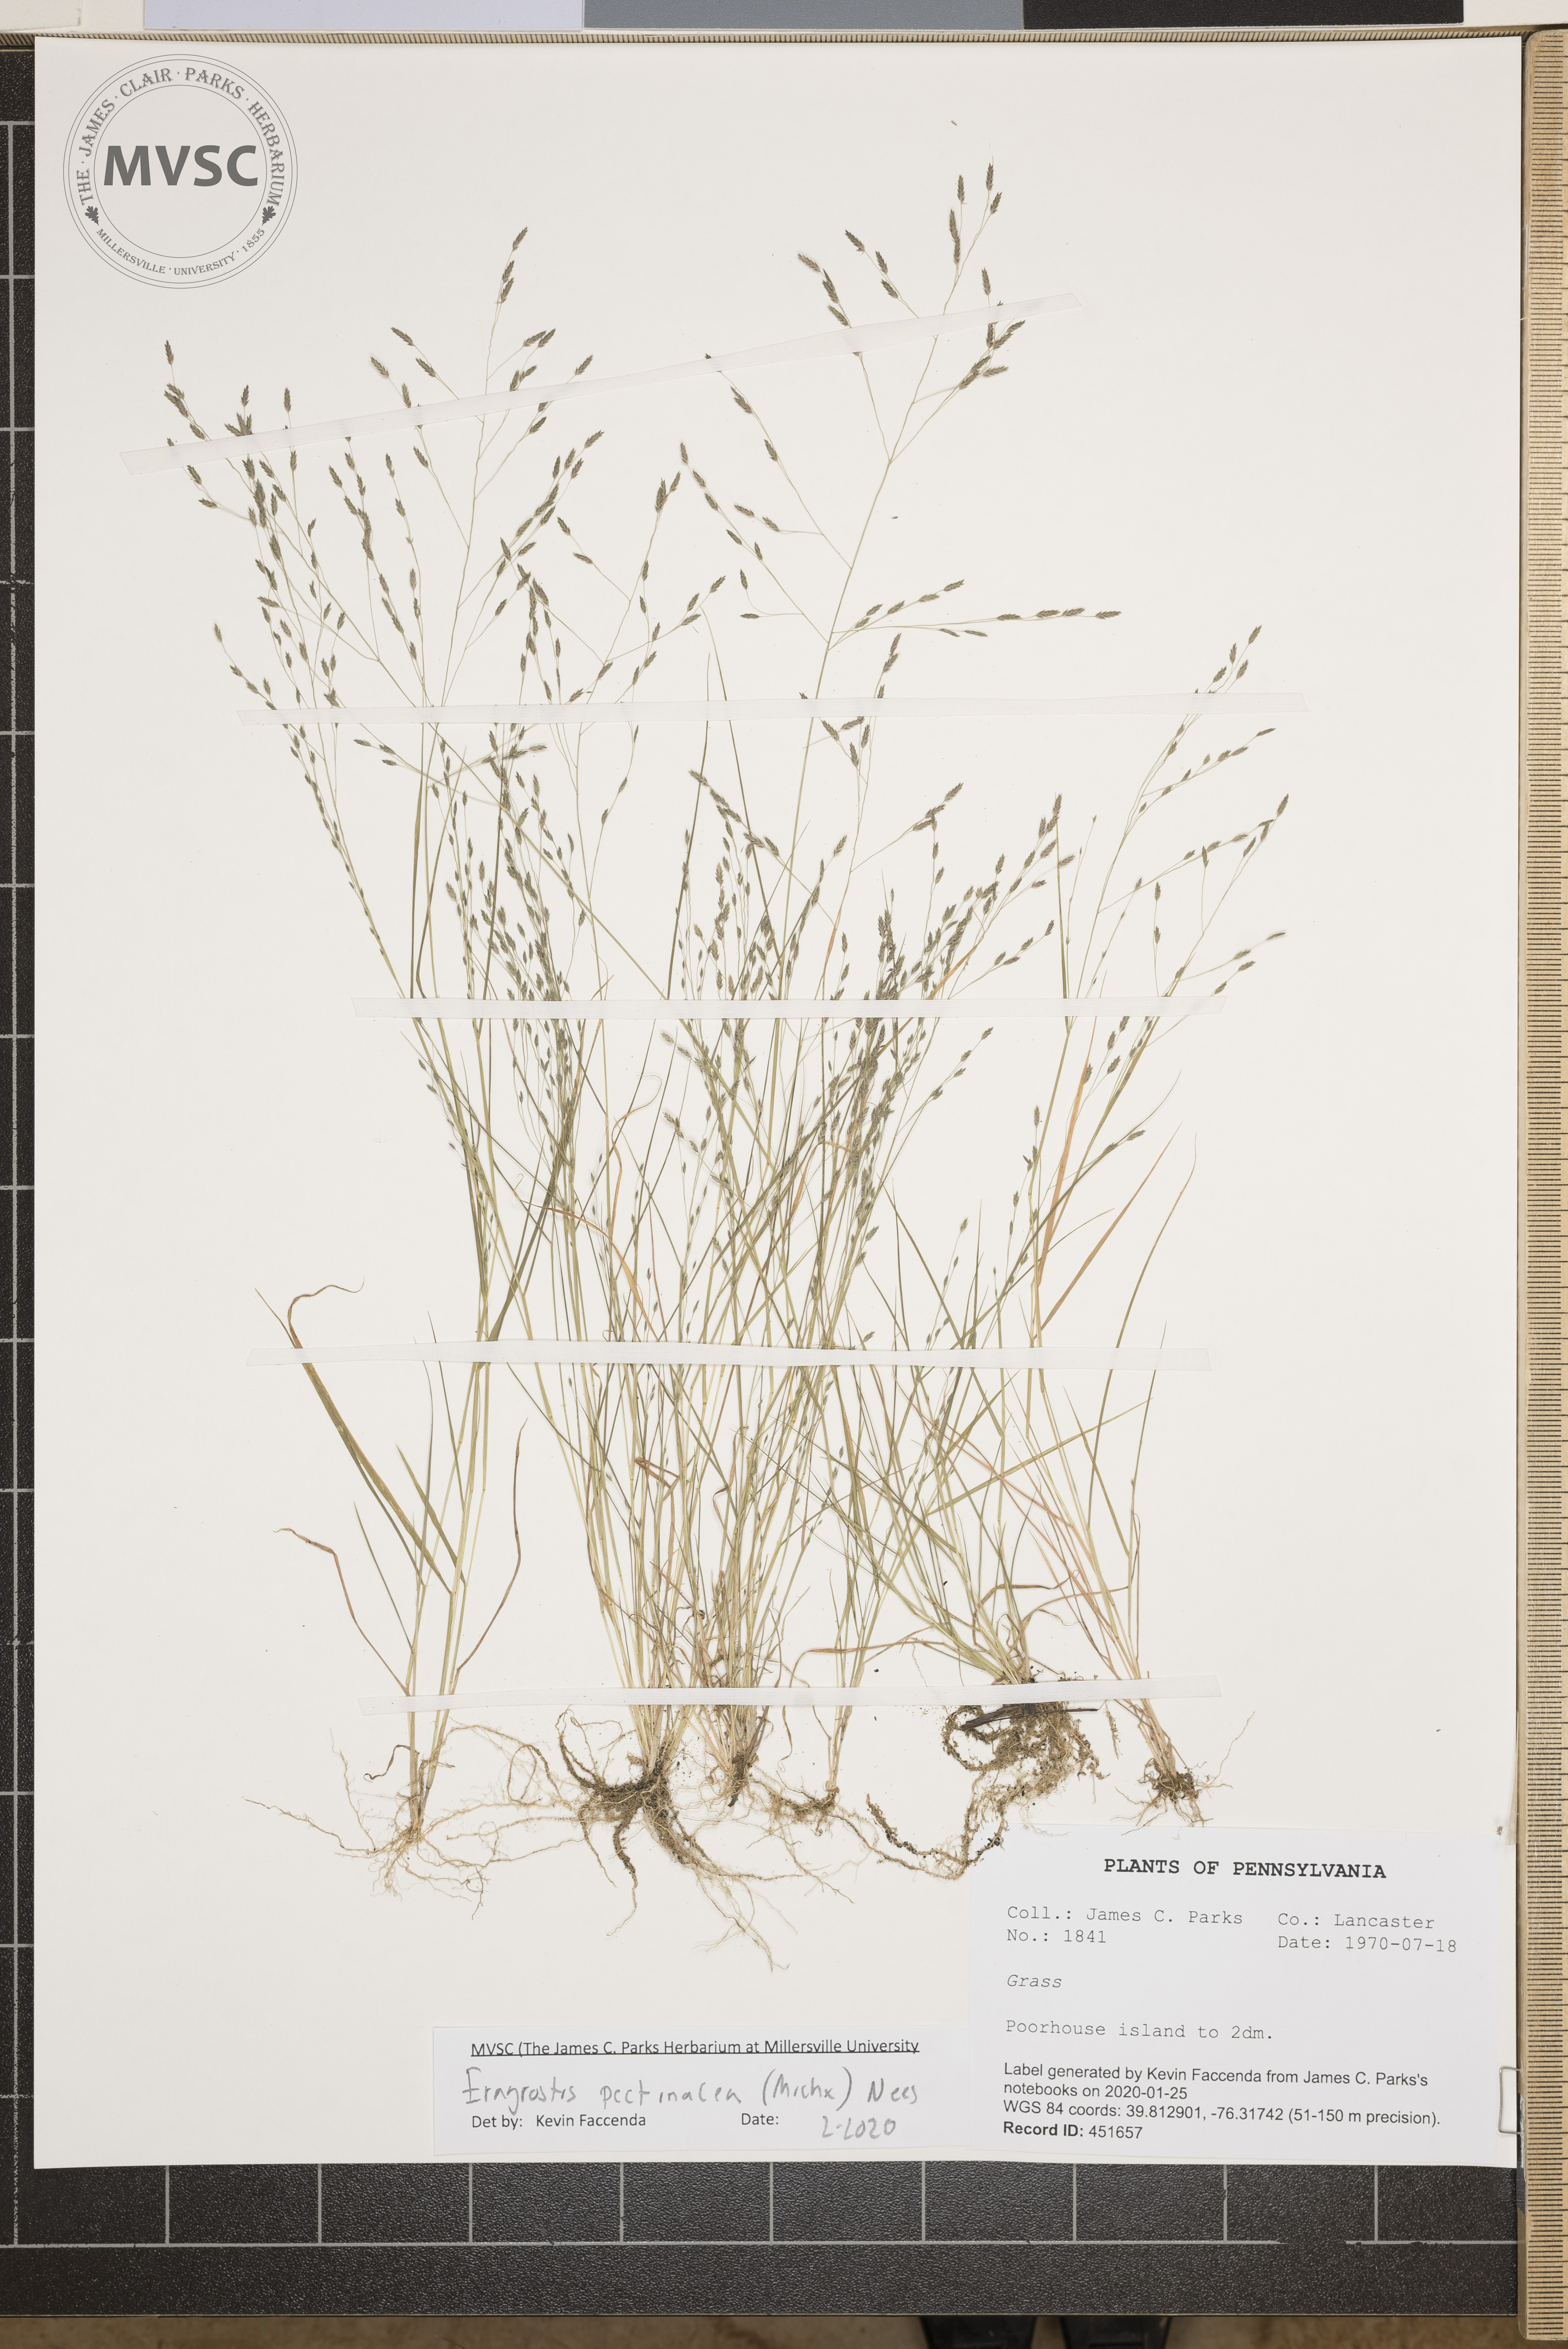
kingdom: Plantae
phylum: Tracheophyta
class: Liliopsida
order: Poales
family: Poaceae
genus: Eragrostis
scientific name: Eragrostis pectinacea
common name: Tufted lovegrass
